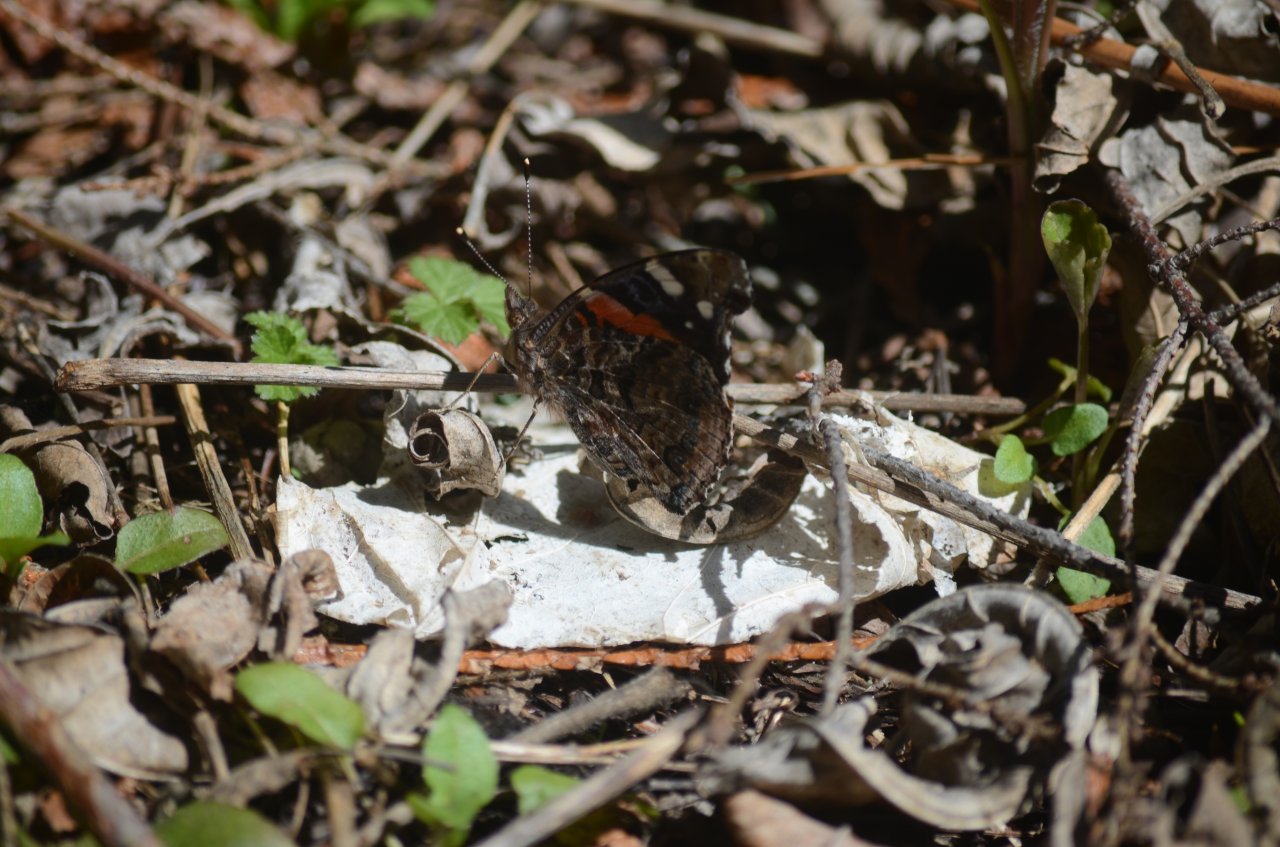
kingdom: Animalia
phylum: Arthropoda
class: Insecta
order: Lepidoptera
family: Nymphalidae
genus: Vanessa
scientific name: Vanessa atalanta
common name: Red Admiral
